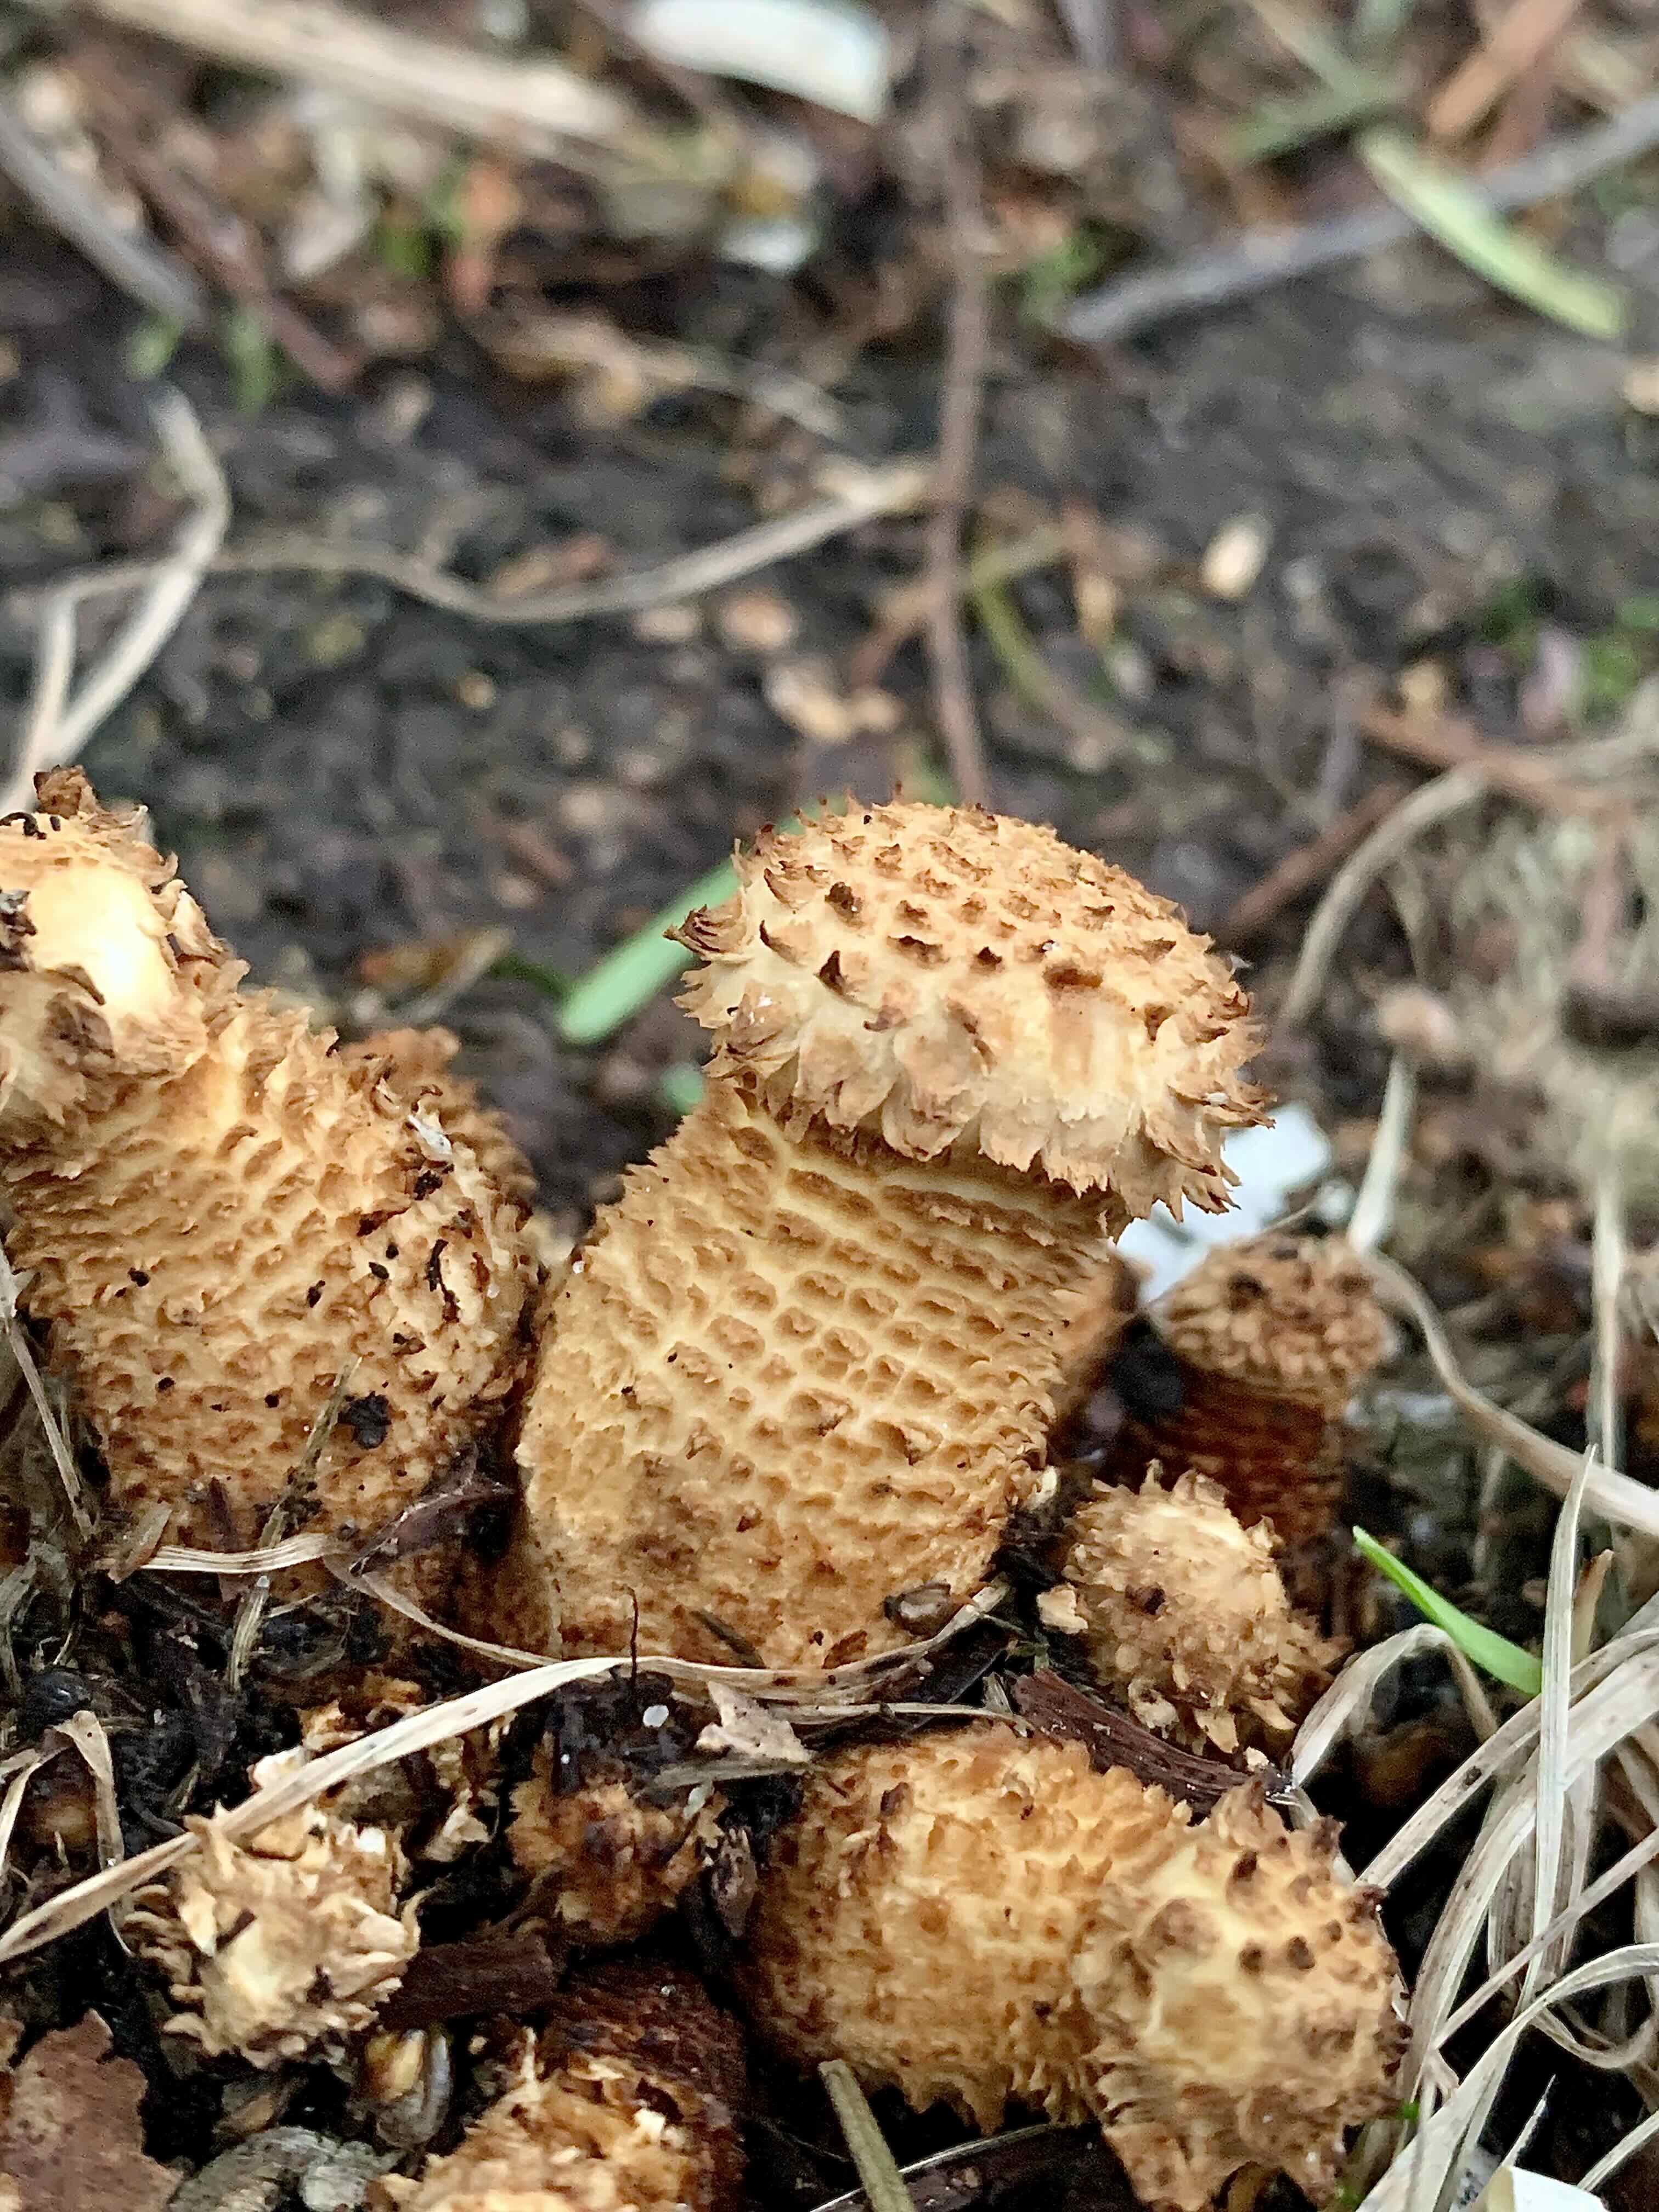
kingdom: Fungi
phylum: Basidiomycota
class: Agaricomycetes
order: Agaricales
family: Strophariaceae
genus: Pholiota
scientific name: Pholiota squarrosa
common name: krumskællet skælhat
